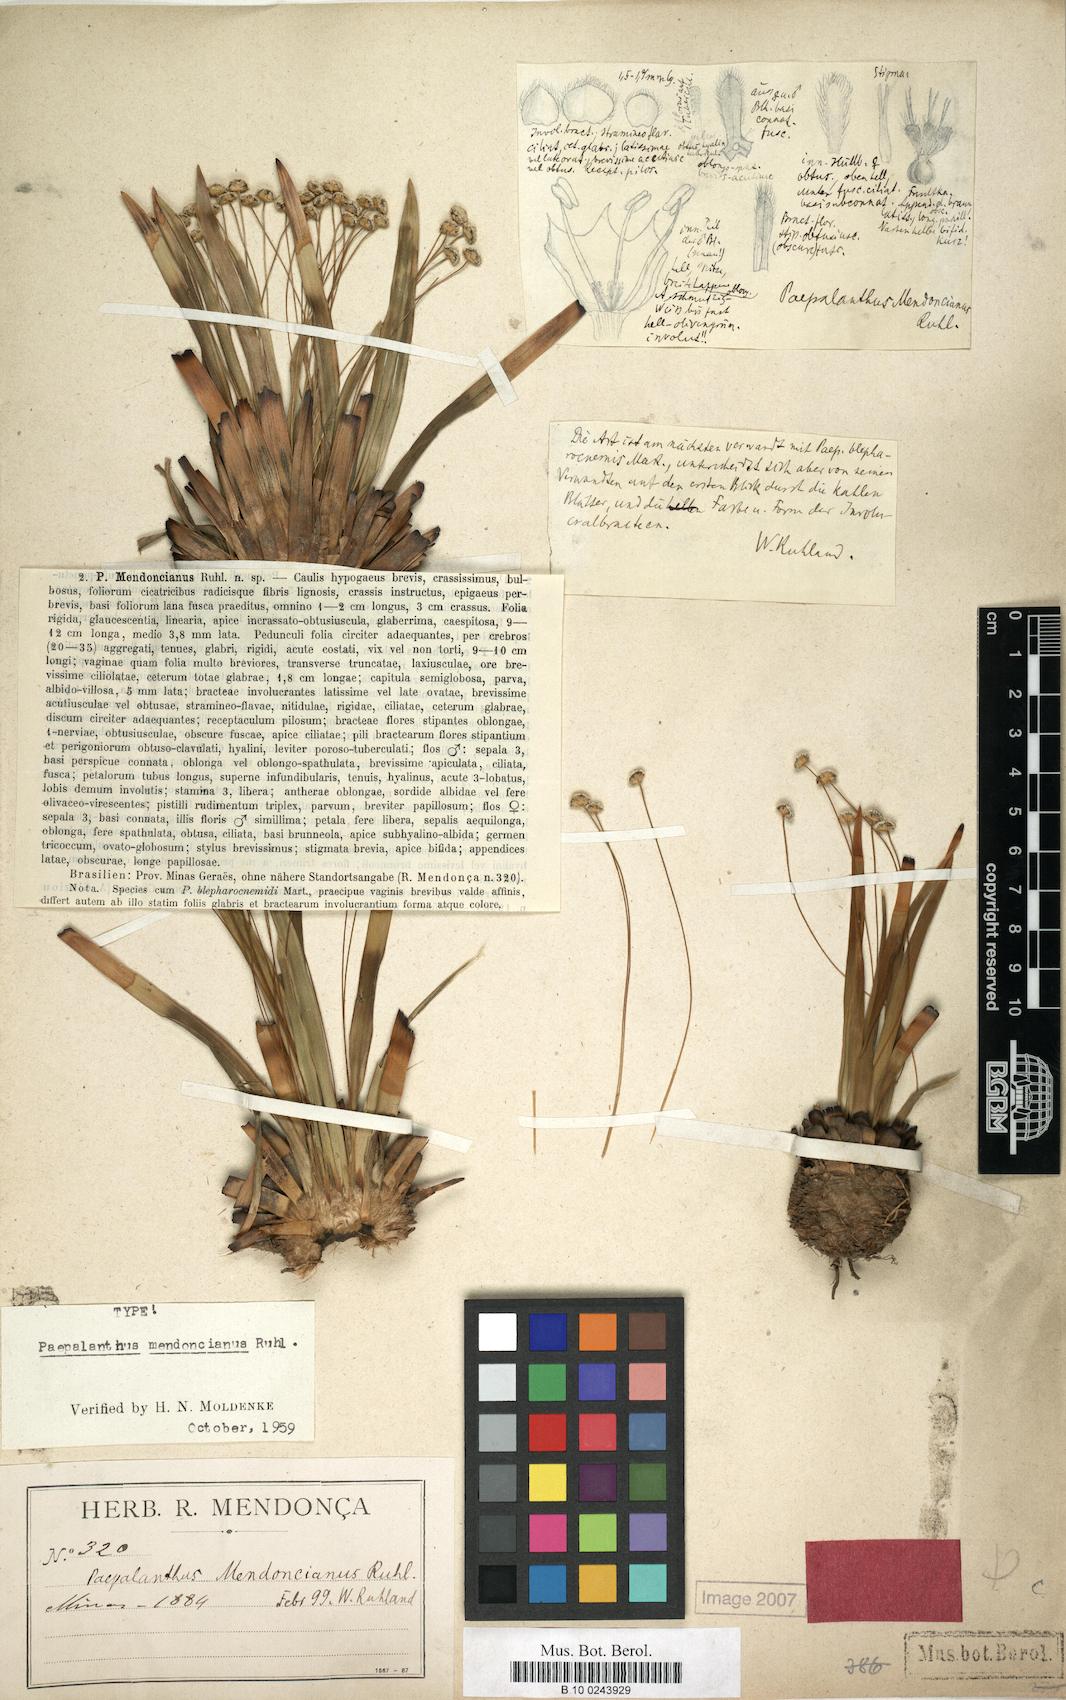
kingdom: Plantae
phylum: Tracheophyta
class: Liliopsida
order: Poales
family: Eriocaulaceae
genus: Paepalanthus
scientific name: Paepalanthus mendoncianus
